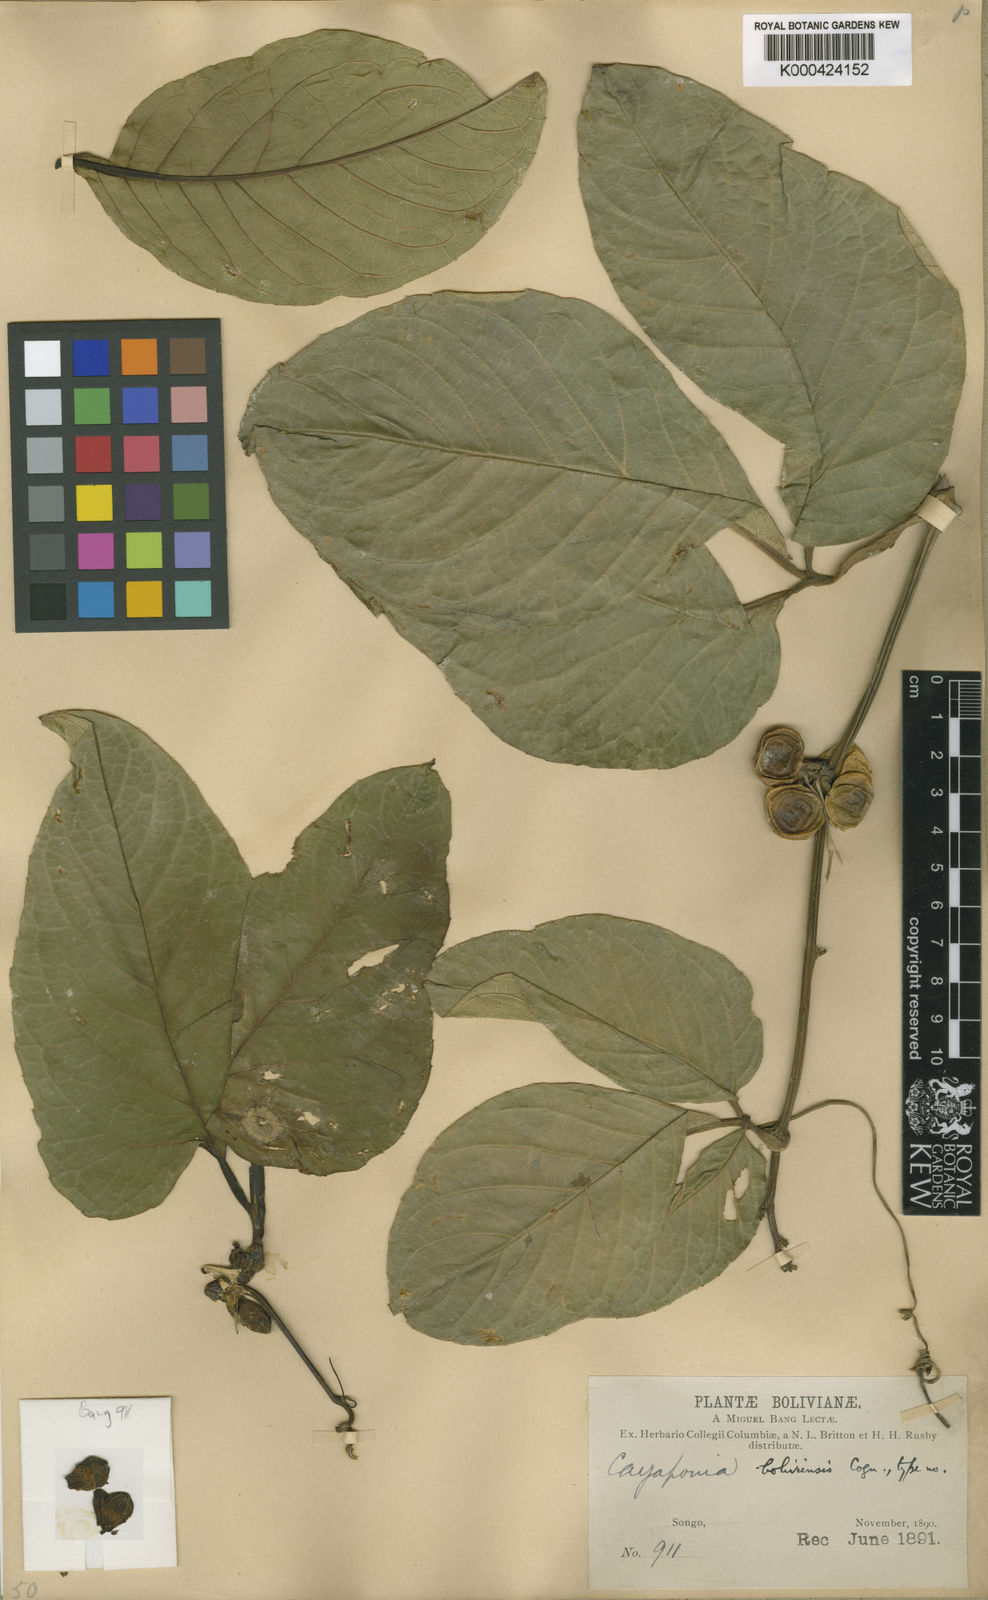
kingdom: Plantae
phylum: Tracheophyta
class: Magnoliopsida
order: Cucurbitales
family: Cucurbitaceae
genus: Cayaponia
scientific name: Cayaponia boliviensis
